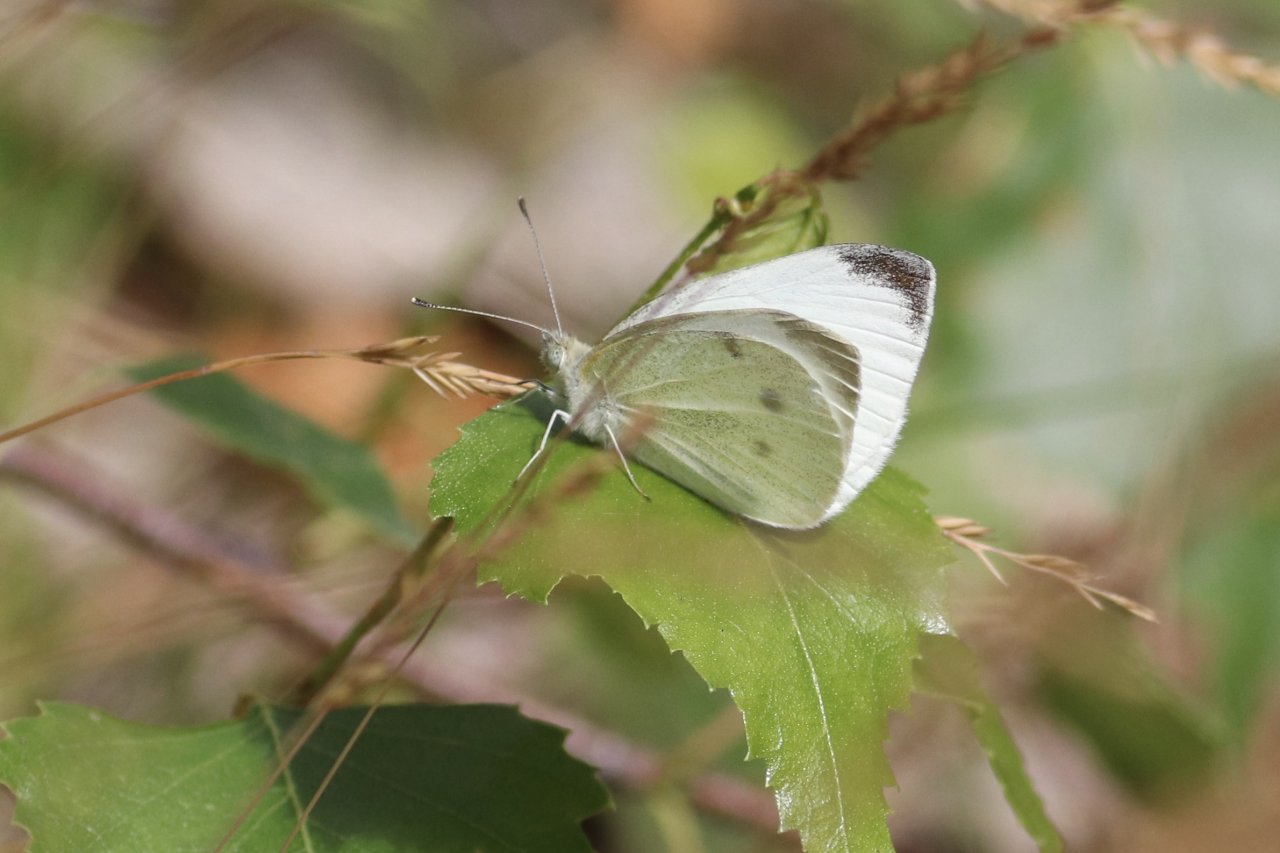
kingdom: Animalia
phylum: Arthropoda
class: Insecta
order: Lepidoptera
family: Pieridae
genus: Pieris
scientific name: Pieris rapae
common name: Cabbage White
